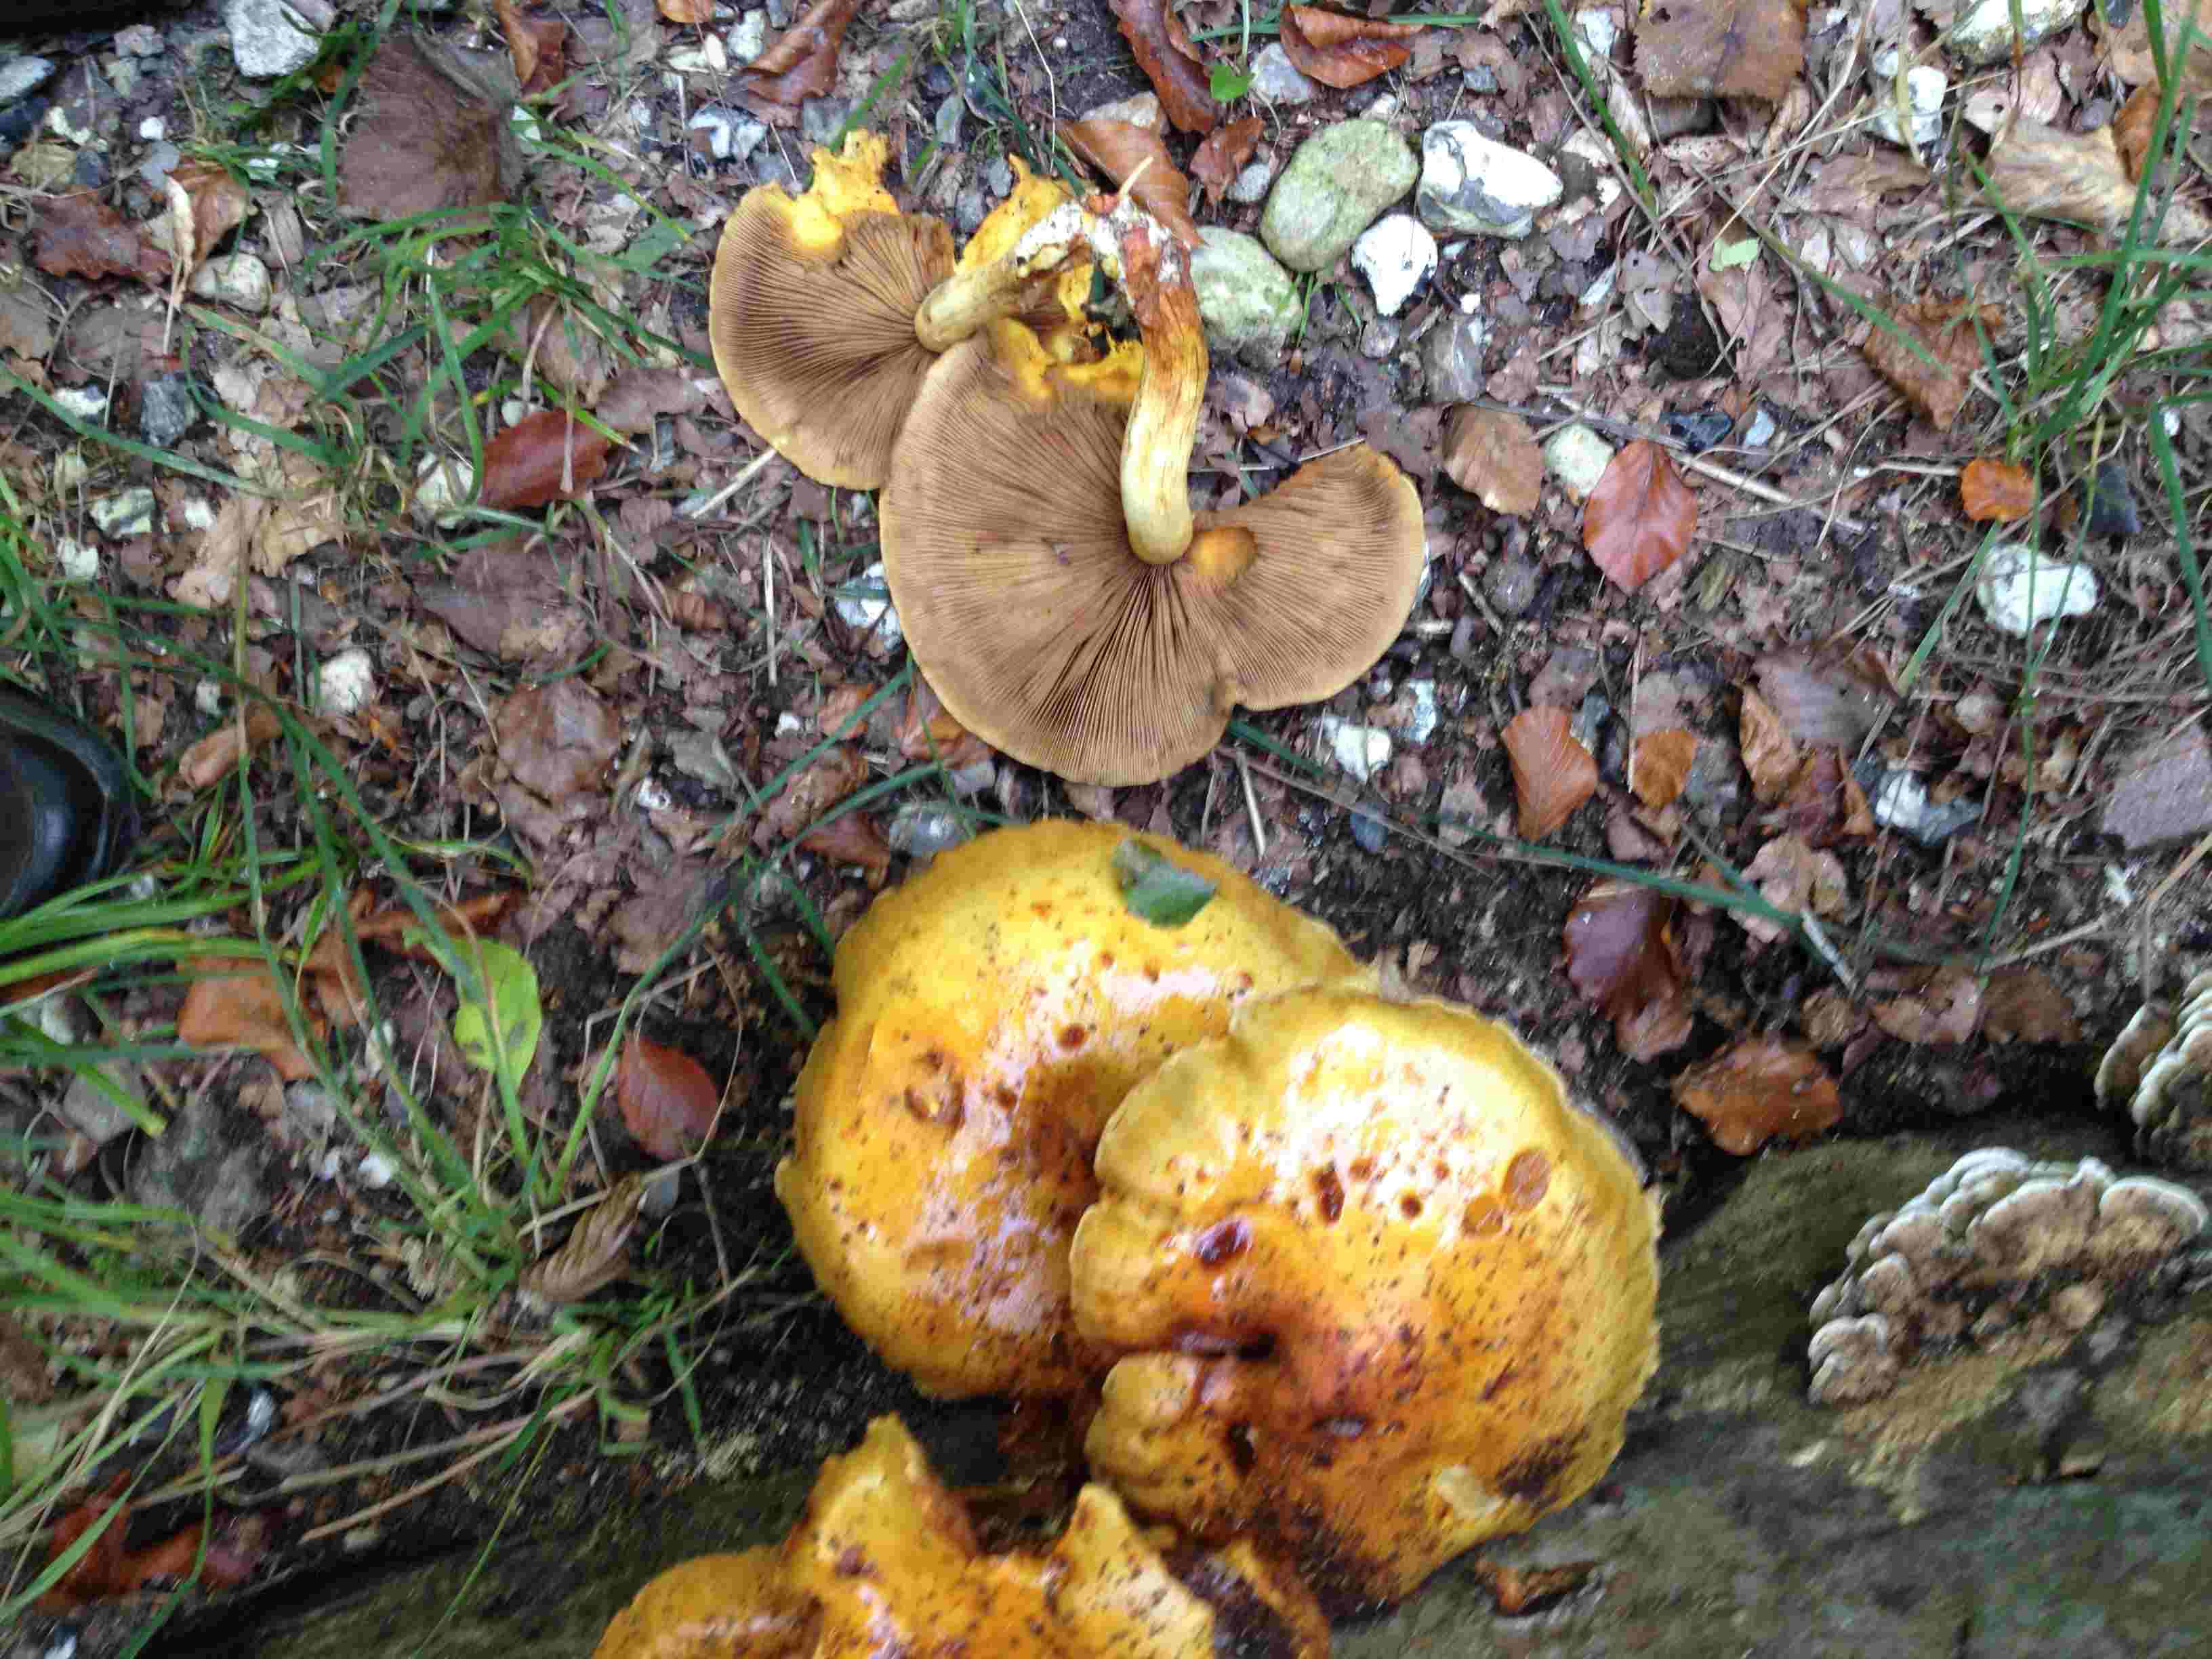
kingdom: Fungi
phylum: Basidiomycota
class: Agaricomycetes
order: Agaricales
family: Strophariaceae
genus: Pholiota
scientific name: Pholiota adiposa
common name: højtsiddende skælhat
